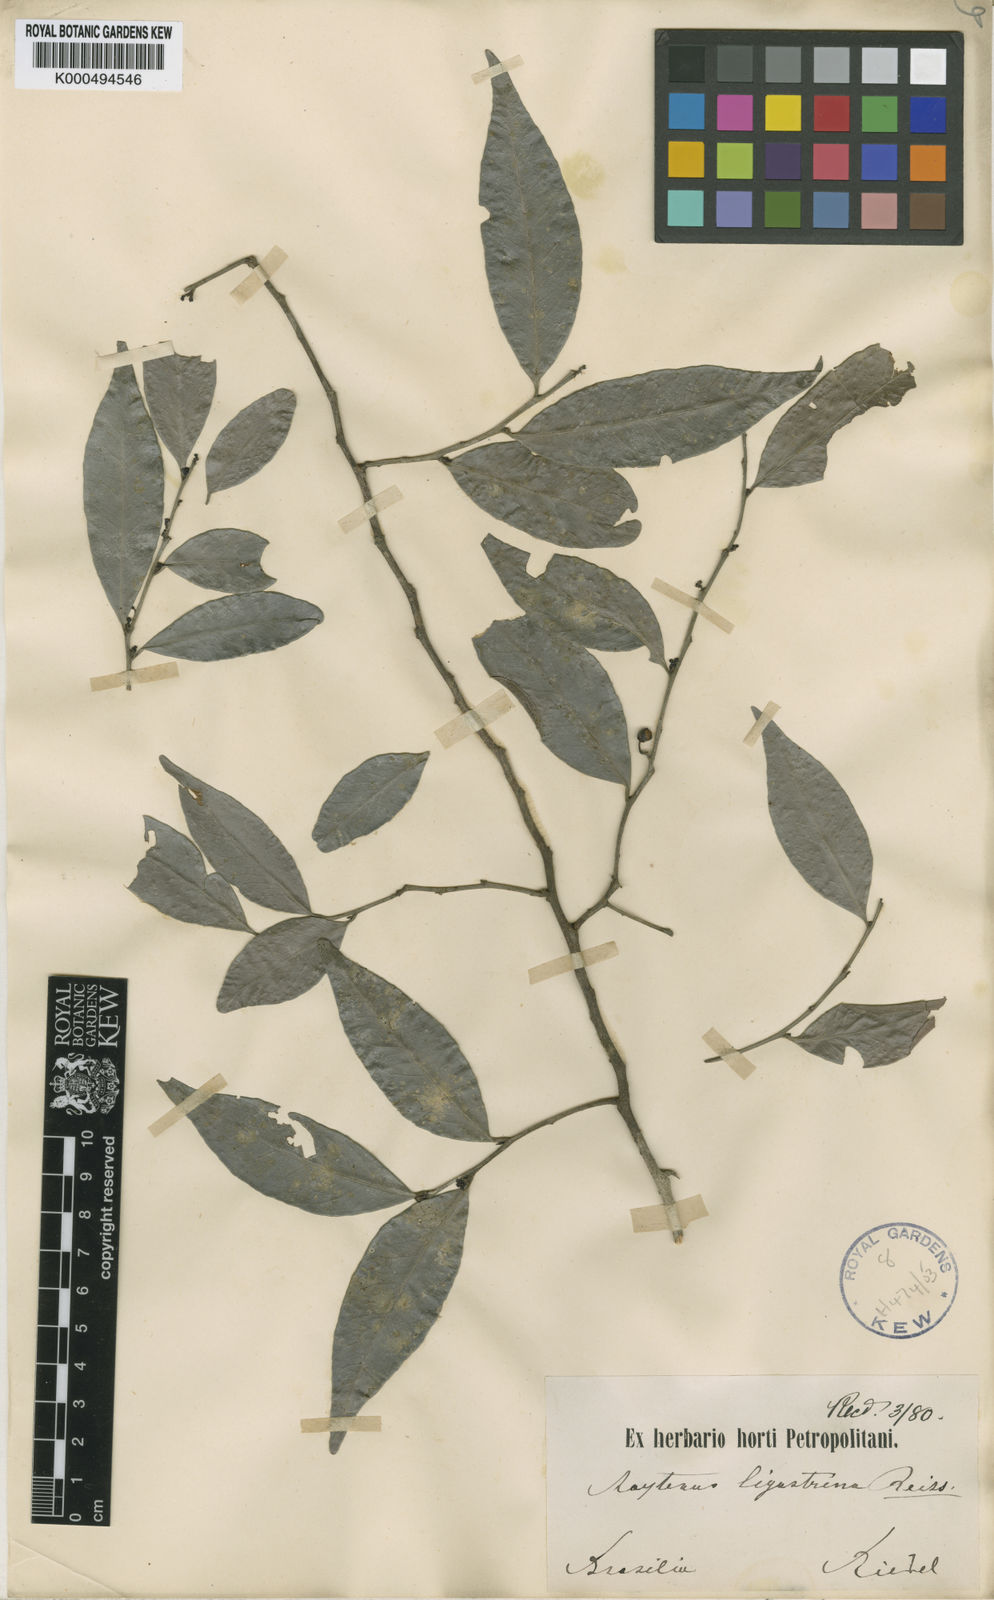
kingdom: Plantae
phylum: Tracheophyta
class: Magnoliopsida
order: Celastrales
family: Celastraceae
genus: Monteverdia
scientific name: Monteverdia brasiliensis
